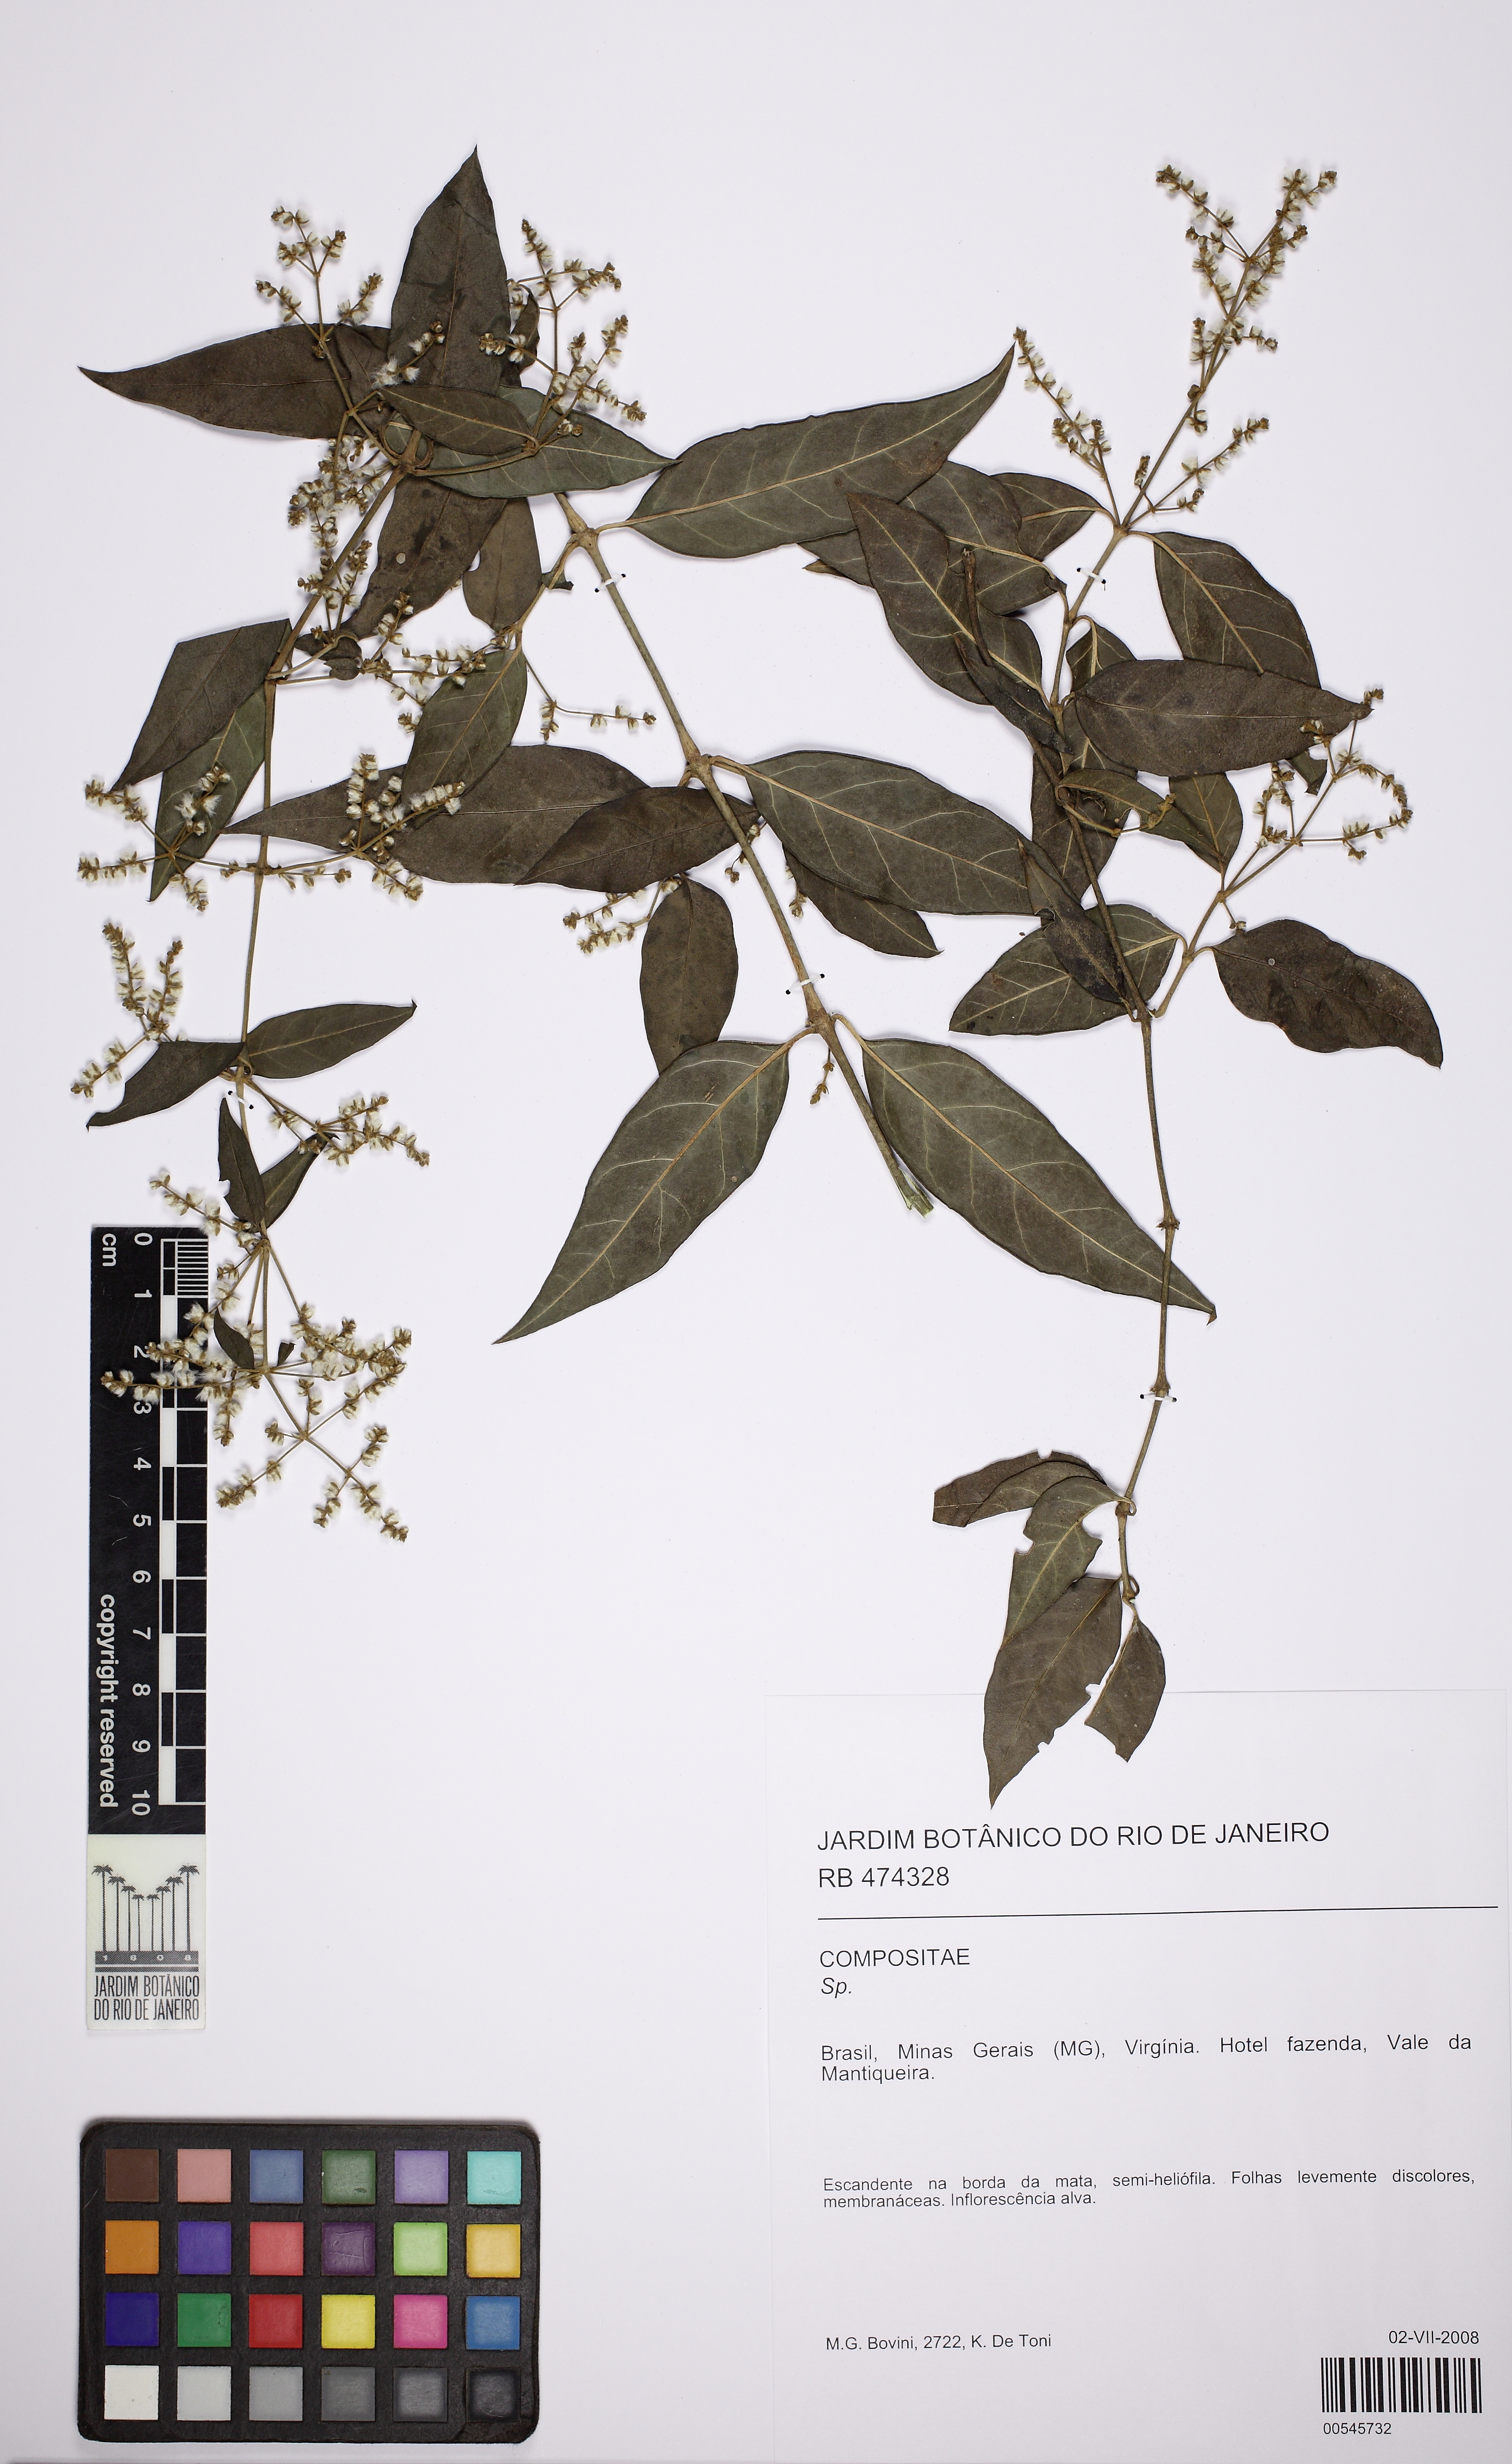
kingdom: Plantae
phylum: Tracheophyta
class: Magnoliopsida
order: Caryophyllales
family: Amaranthaceae
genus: Hebanthe
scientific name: Hebanthe
